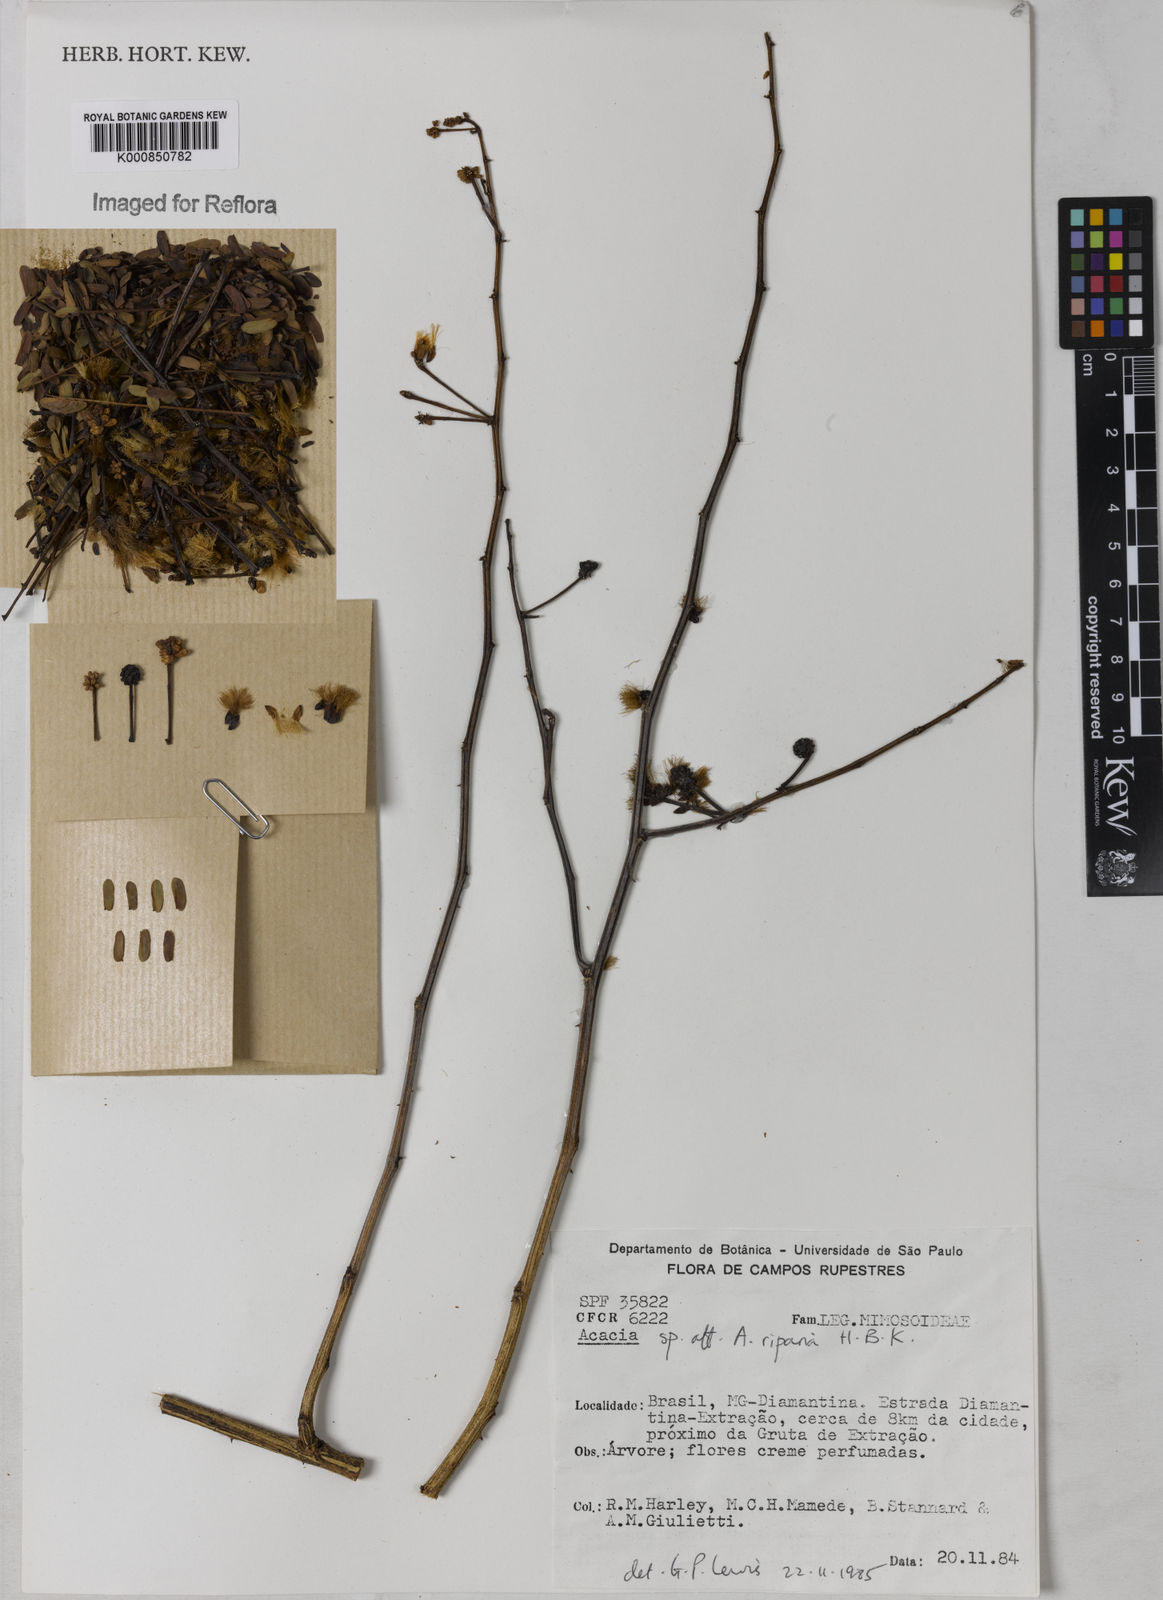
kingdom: Plantae
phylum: Tracheophyta
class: Magnoliopsida
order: Fabales
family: Fabaceae
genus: Senegalia
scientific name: Senegalia riparia
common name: Catch-and-keep
